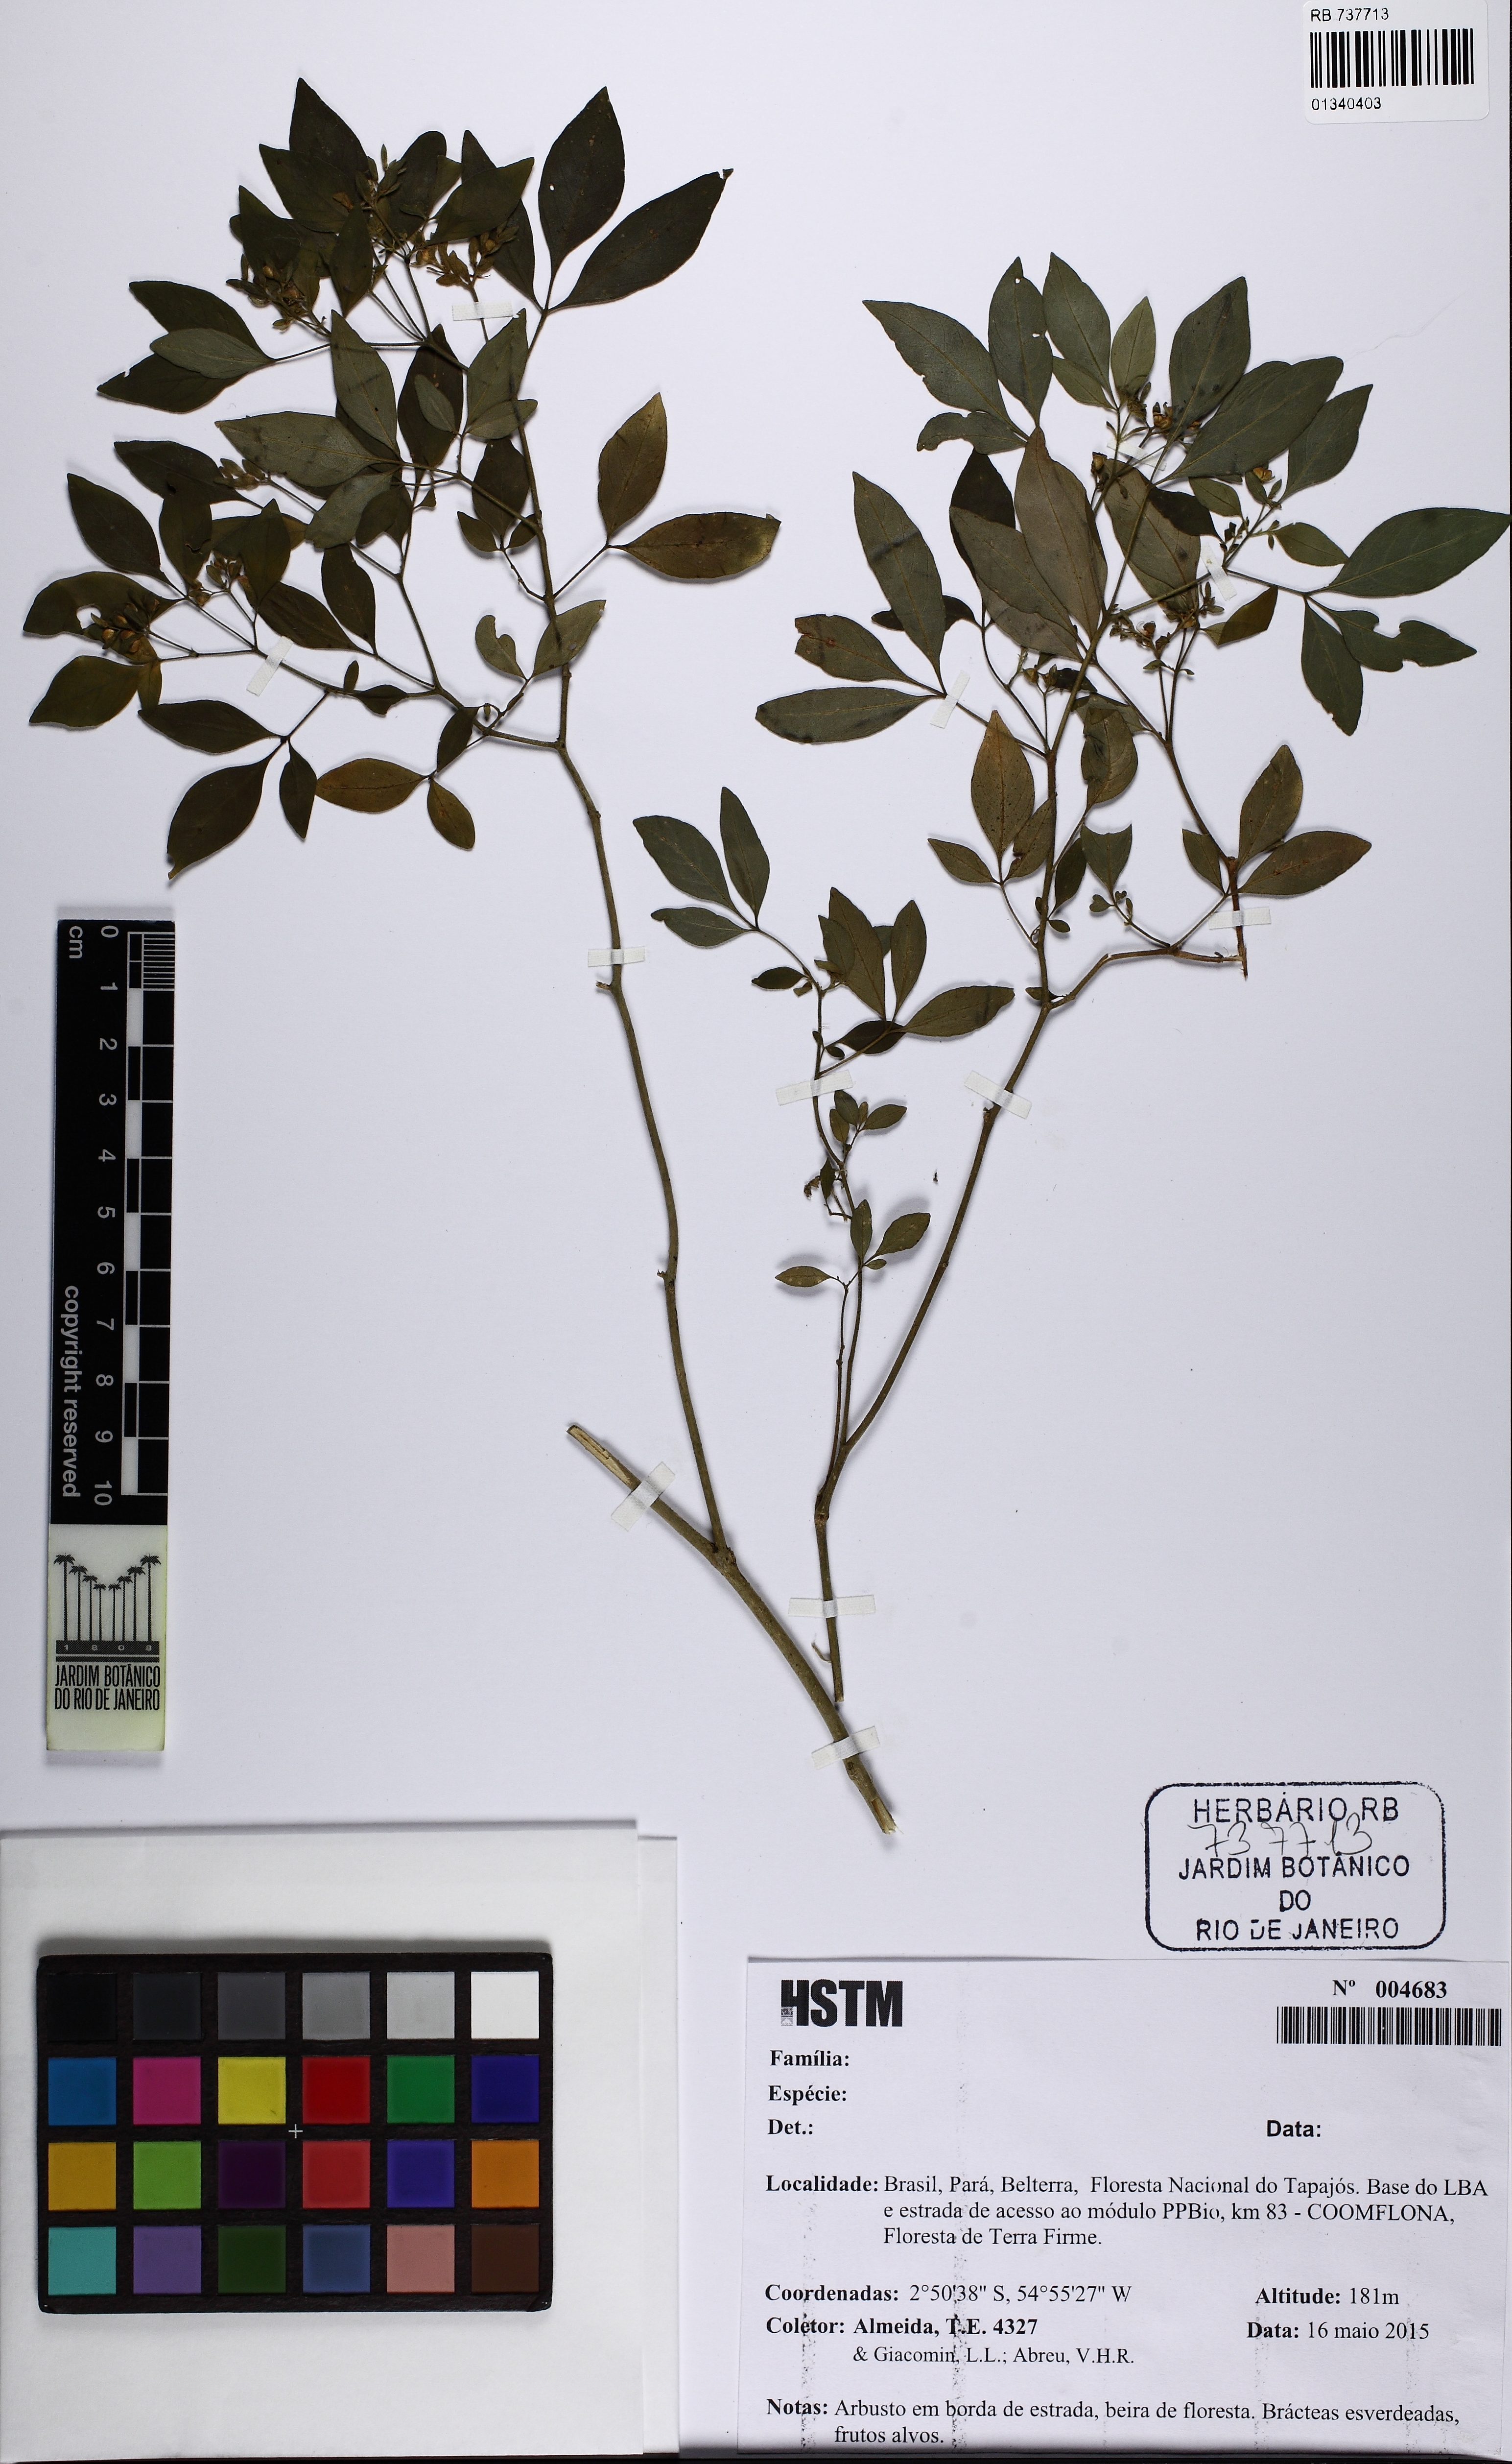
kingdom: Plantae
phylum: Tracheophyta
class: Magnoliopsida
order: Sapindales
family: Rutaceae
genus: Ertela
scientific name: Ertela trifolia
